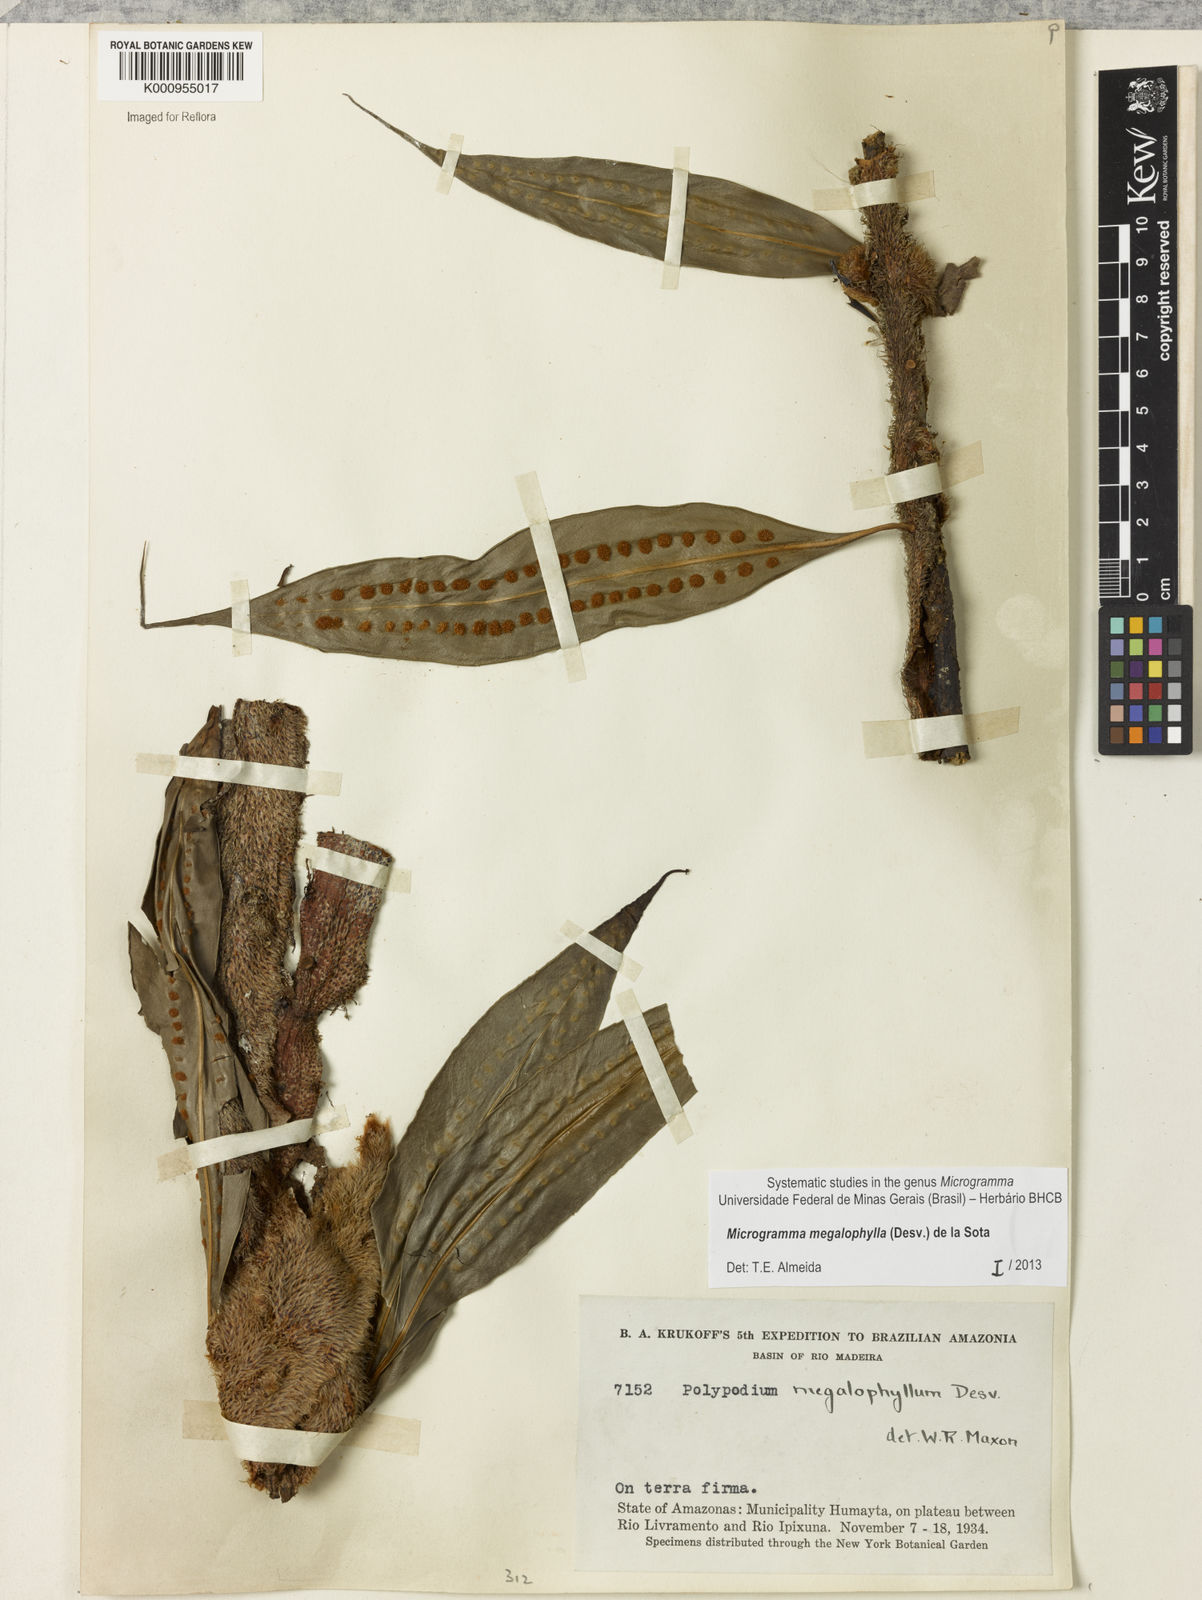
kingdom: Plantae
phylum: Tracheophyta
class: Polypodiopsida
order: Polypodiales
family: Polypodiaceae
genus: Microgramma
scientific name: Microgramma megalophylla
